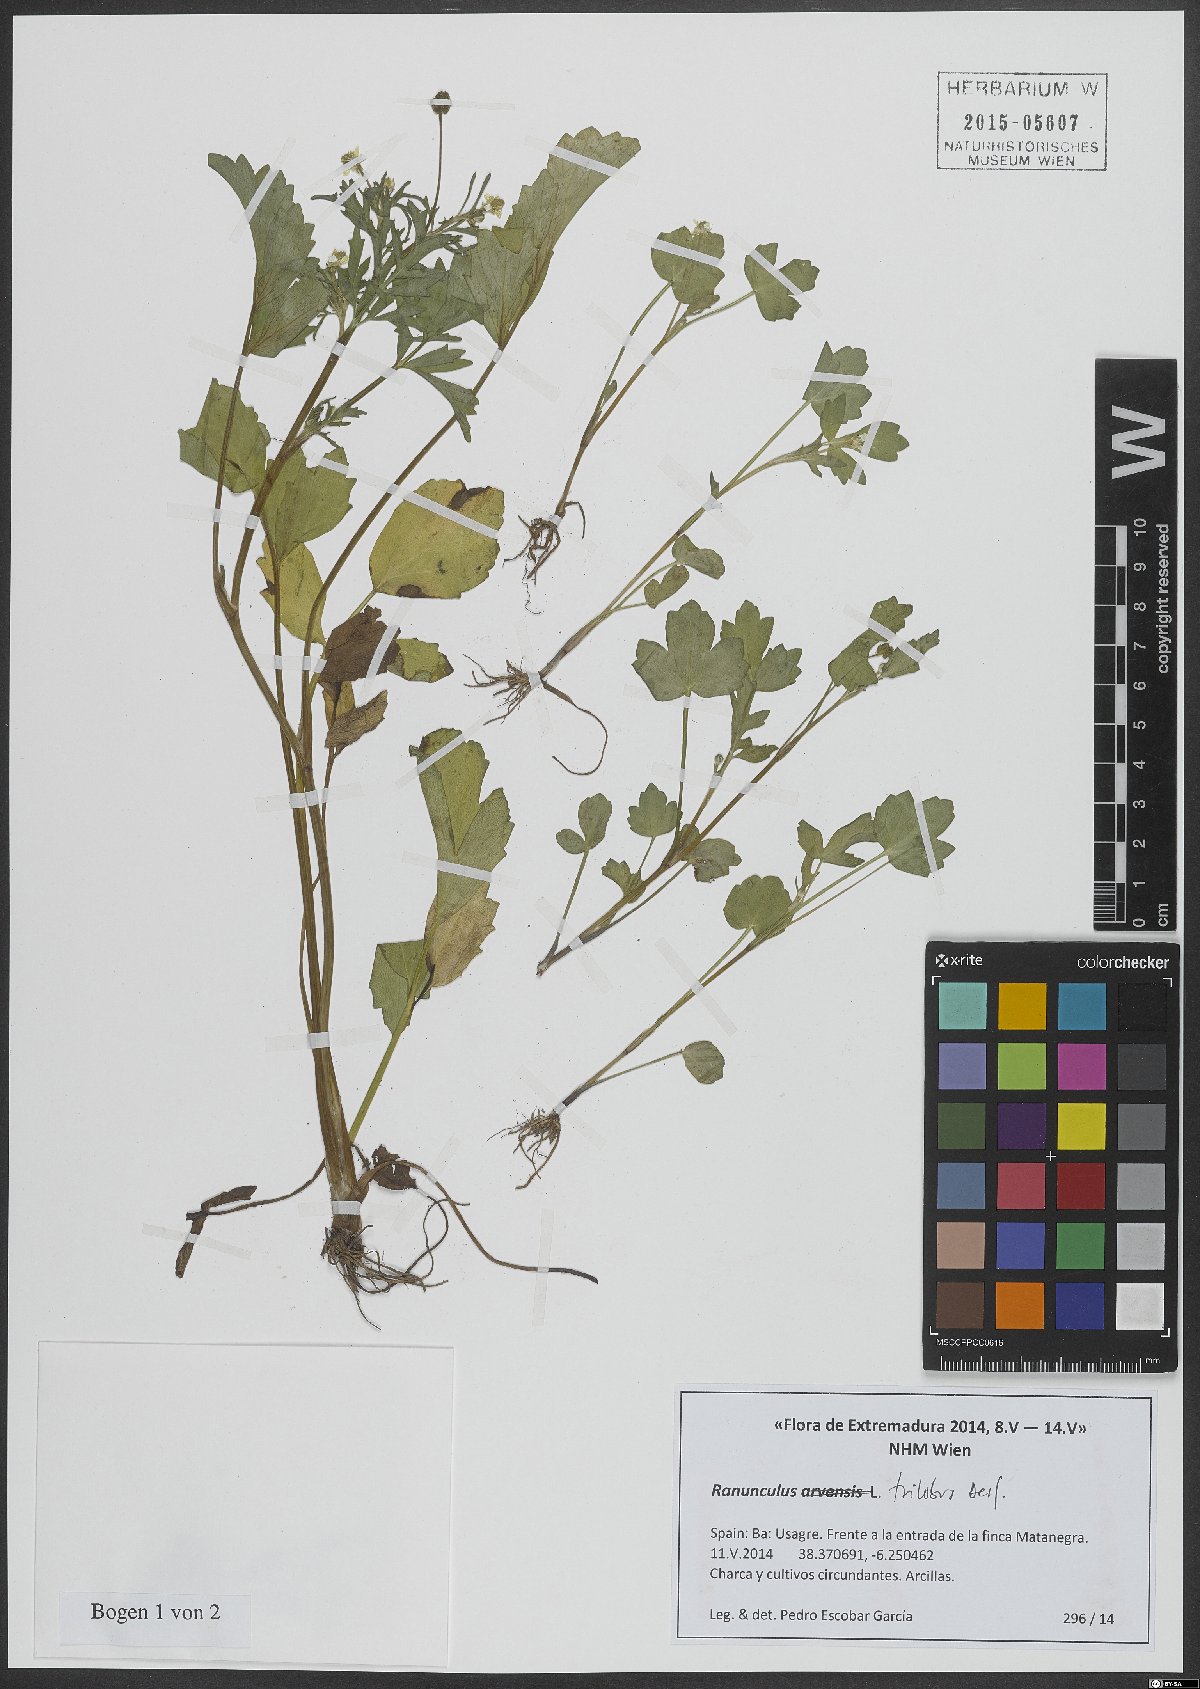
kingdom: Plantae
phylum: Tracheophyta
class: Magnoliopsida
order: Ranunculales
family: Ranunculaceae
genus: Ranunculus
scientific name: Ranunculus trilobus
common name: Threelobe buttercup
